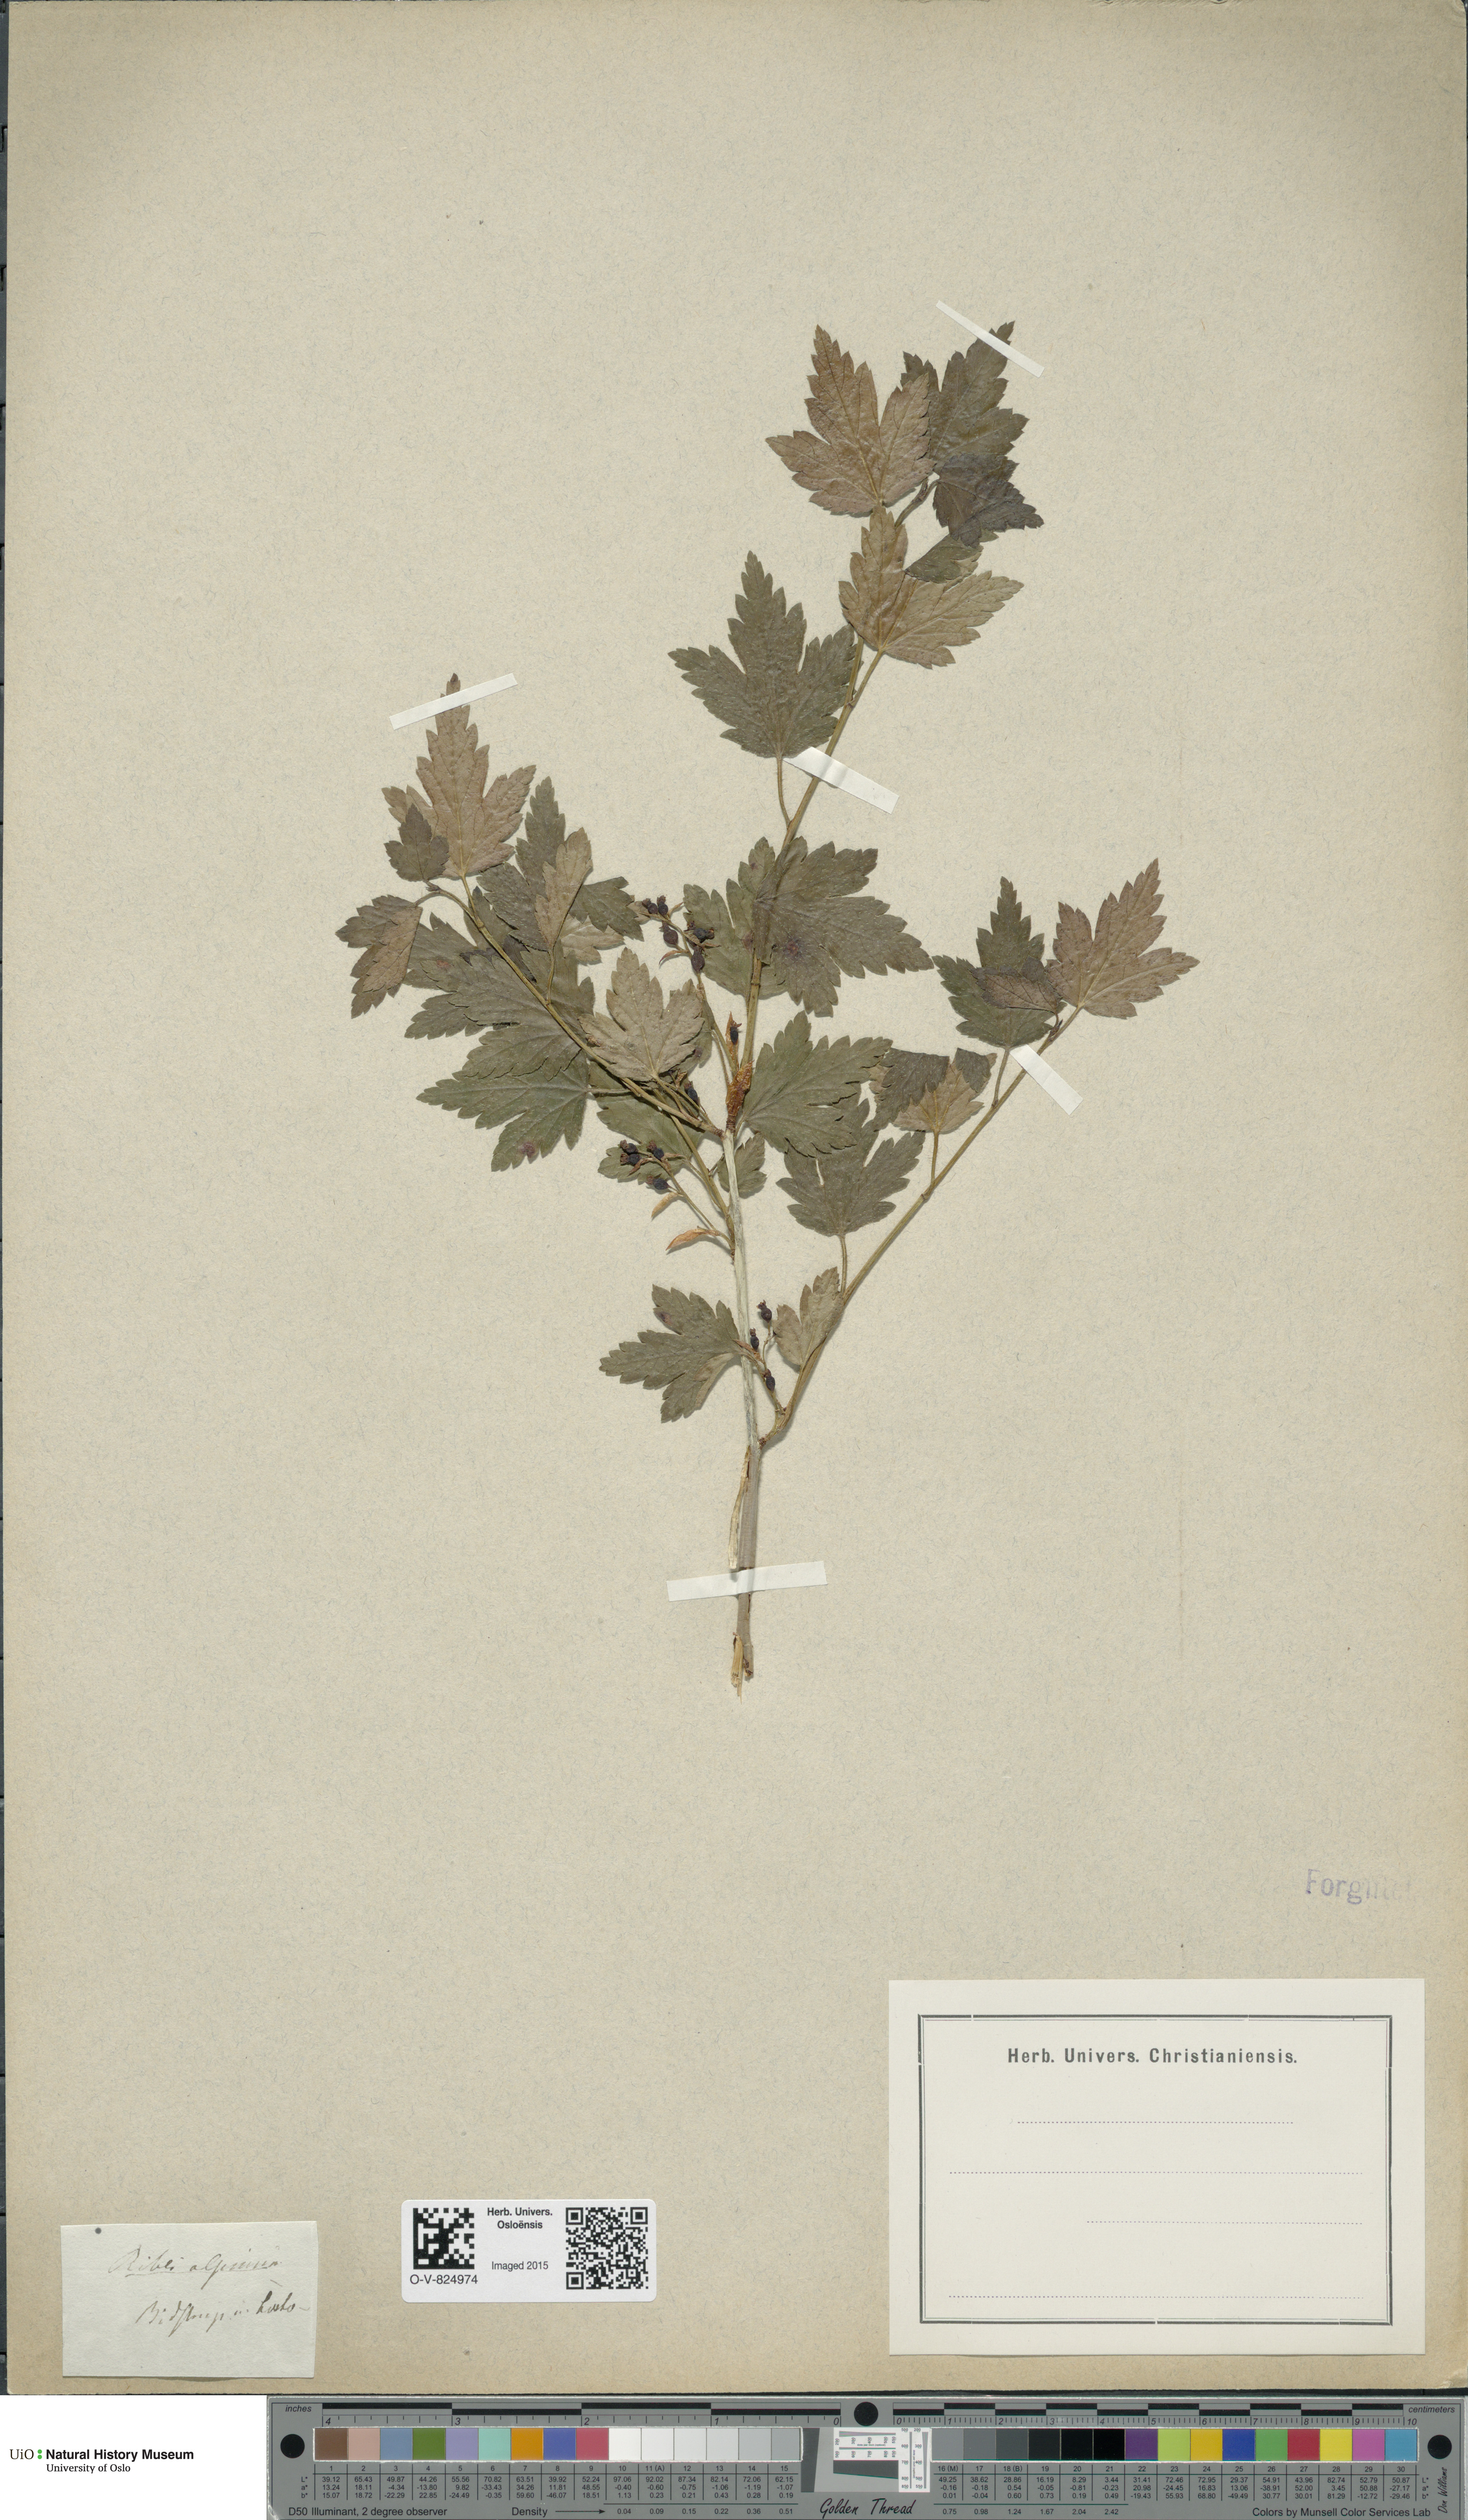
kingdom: Plantae
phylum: Tracheophyta
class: Magnoliopsida
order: Saxifragales
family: Grossulariaceae
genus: Ribes
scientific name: Ribes alpinum
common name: Alpine currant
